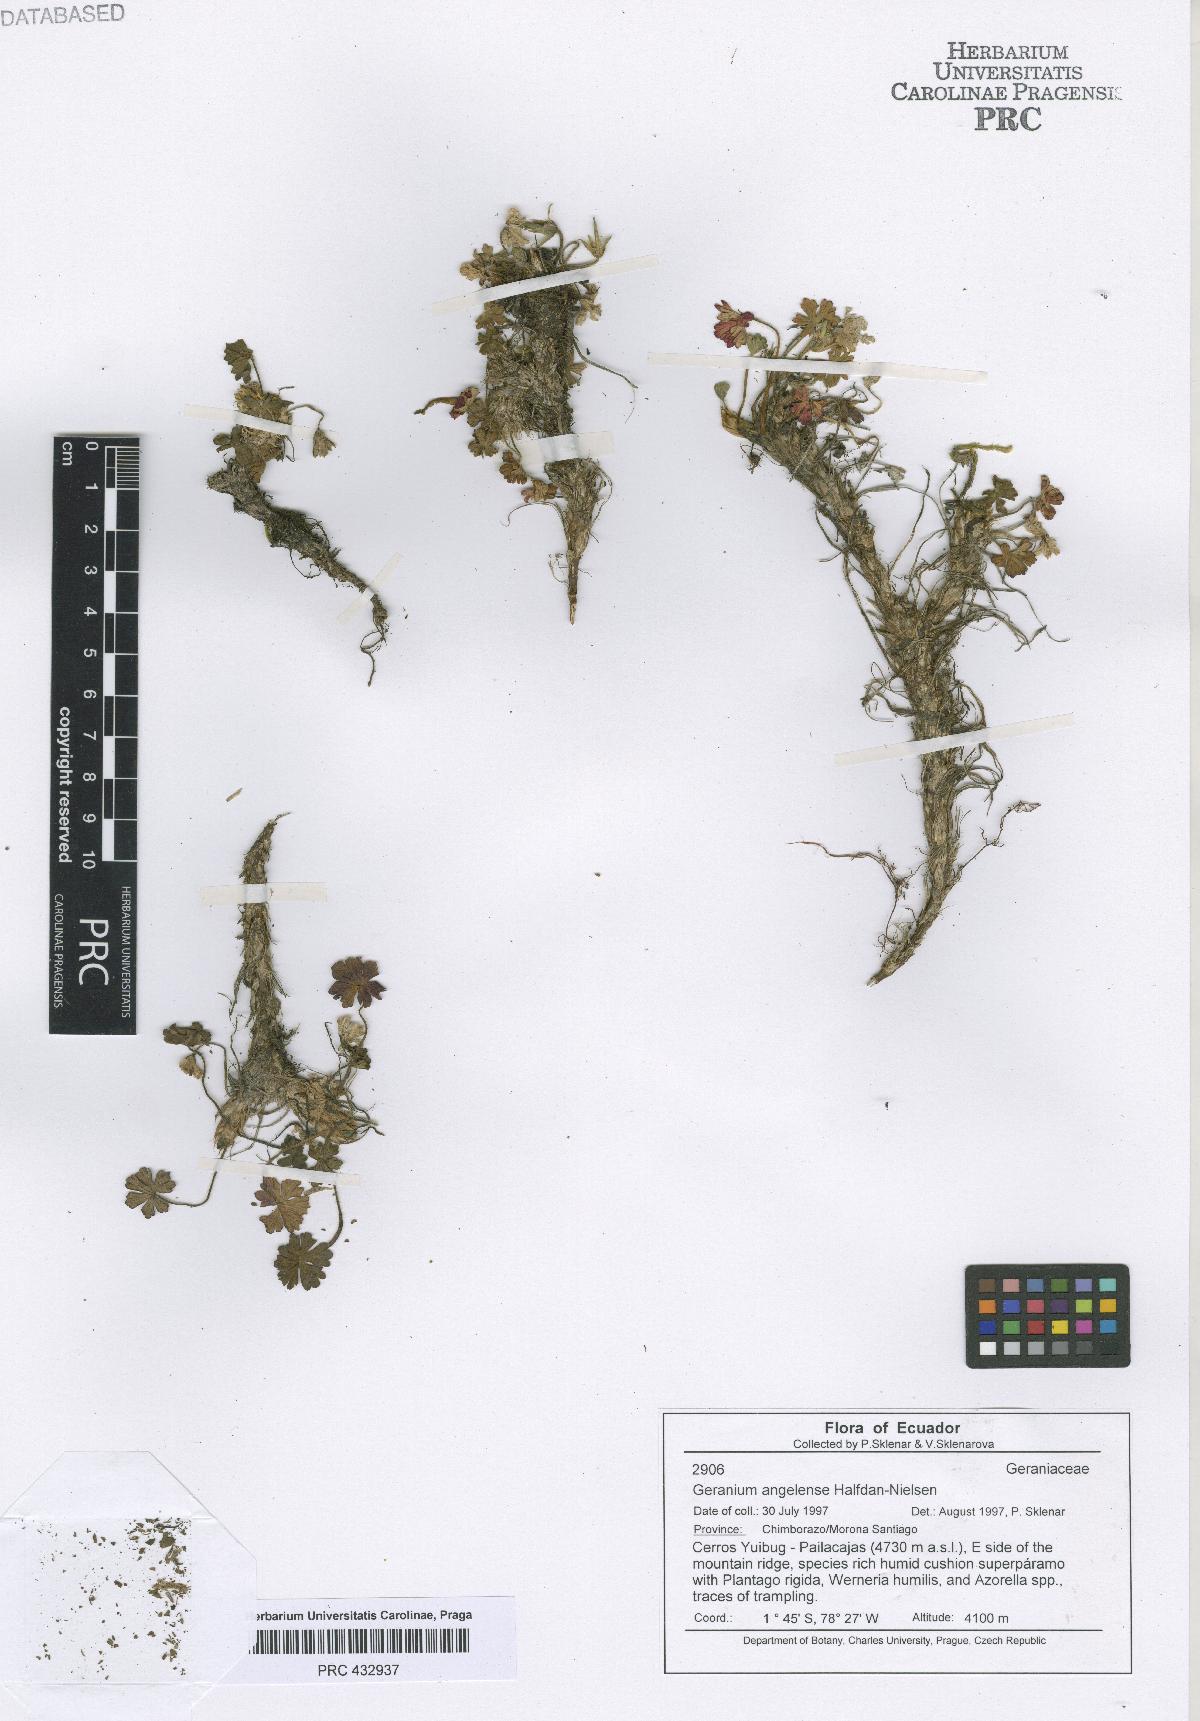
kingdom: Plantae
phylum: Tracheophyta
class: Magnoliopsida
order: Geraniales
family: Geraniaceae
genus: Geranium
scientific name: Geranium stramineum
